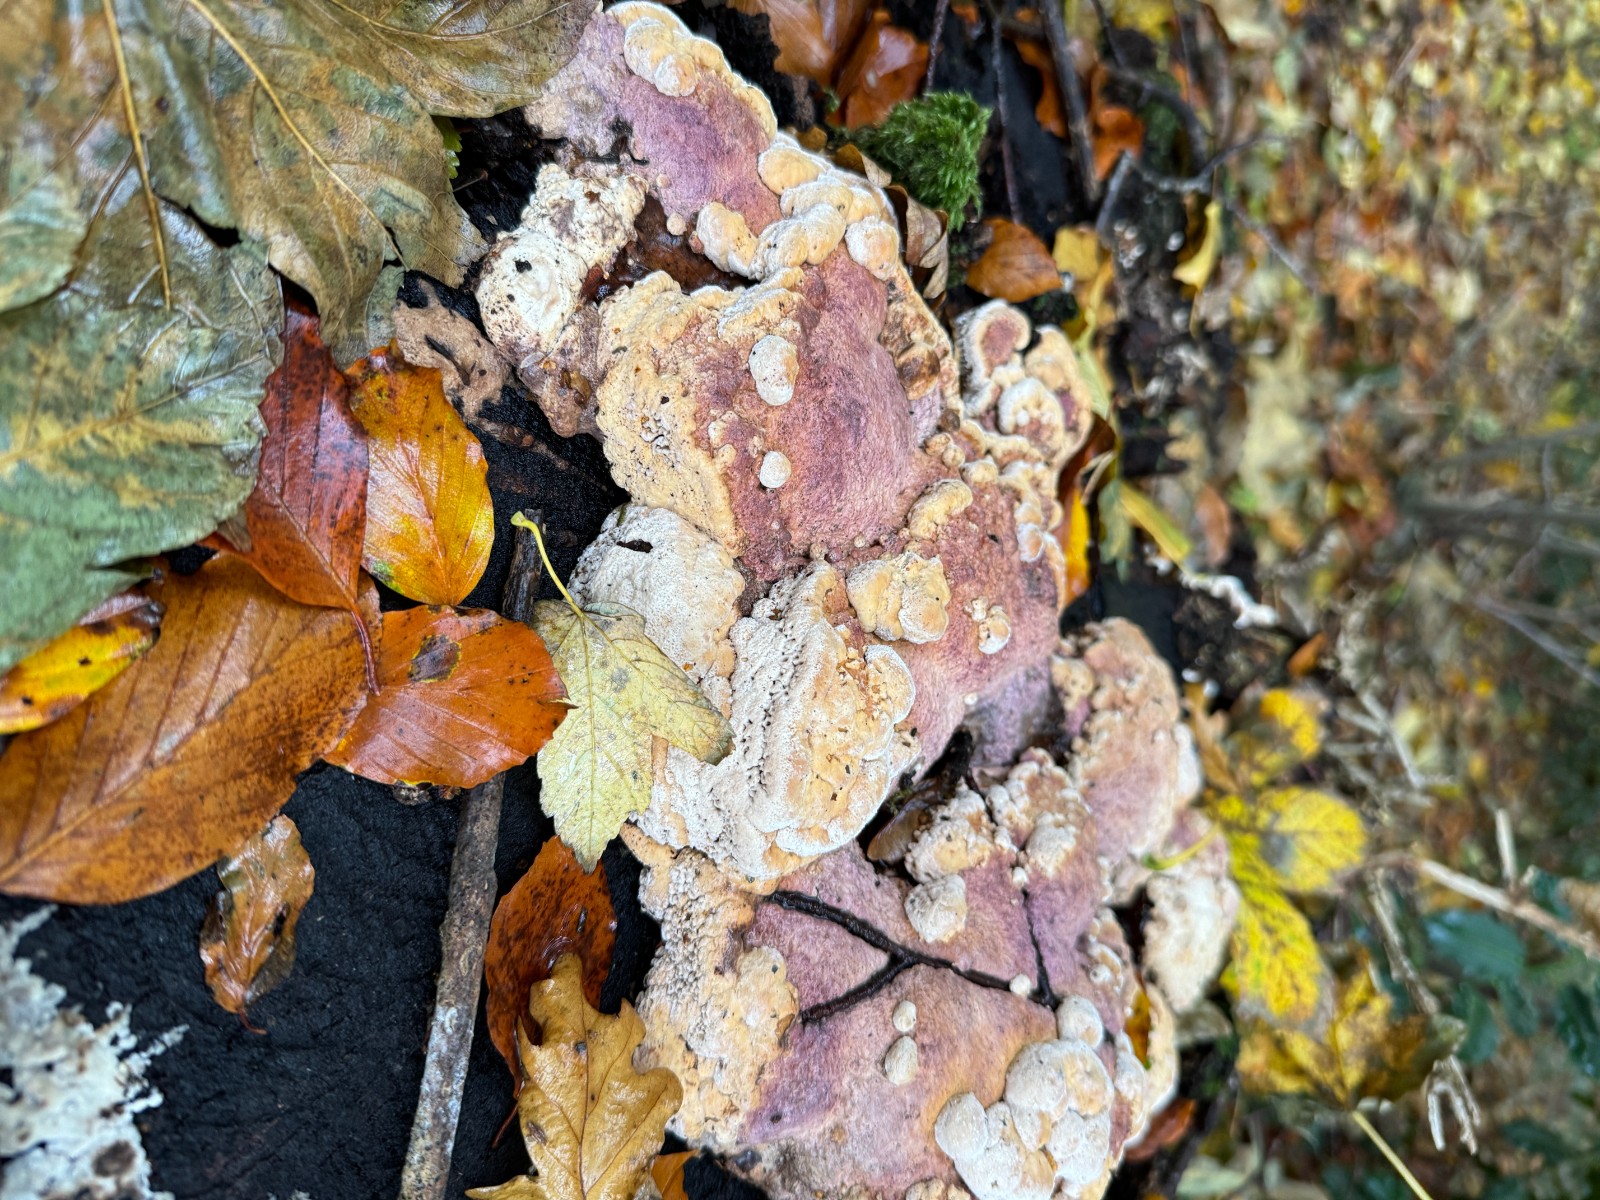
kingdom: Fungi
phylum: Basidiomycota
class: Agaricomycetes
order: Polyporales
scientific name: Polyporales
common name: poresvampordenen
